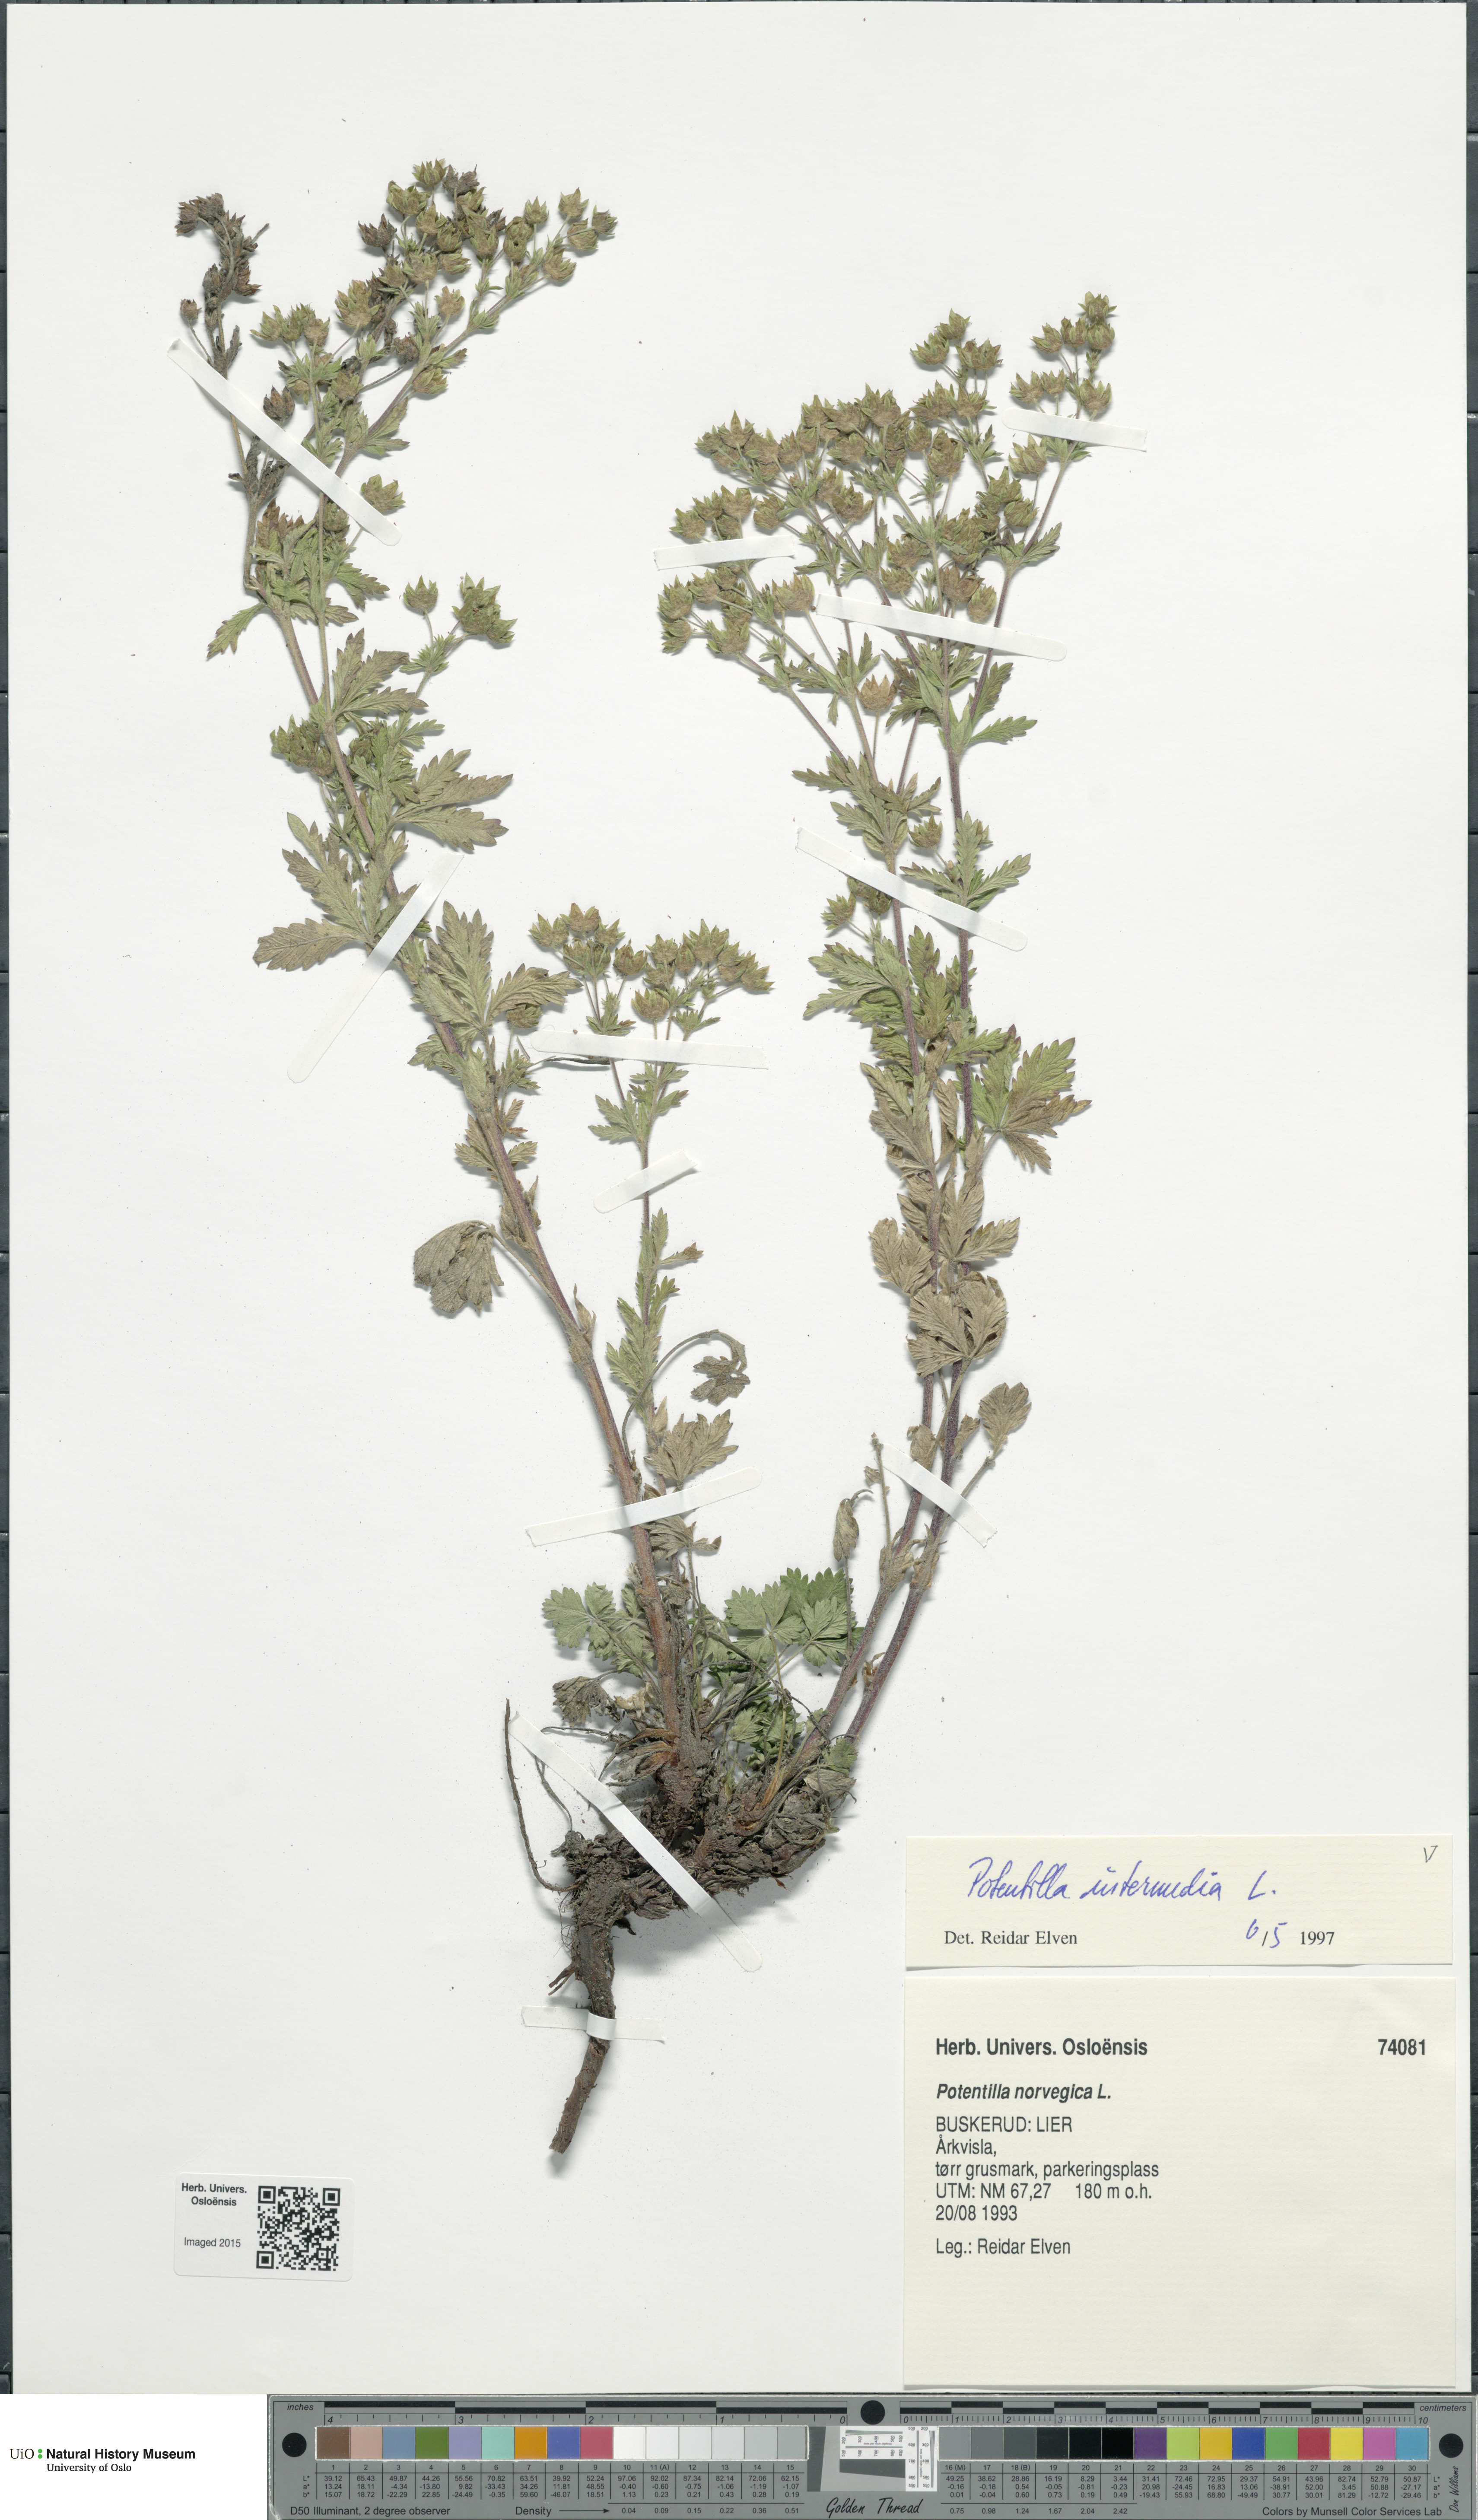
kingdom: Plantae
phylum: Tracheophyta
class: Magnoliopsida
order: Rosales
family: Rosaceae
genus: Potentilla
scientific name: Potentilla intermedia
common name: Downy cinquefoil
